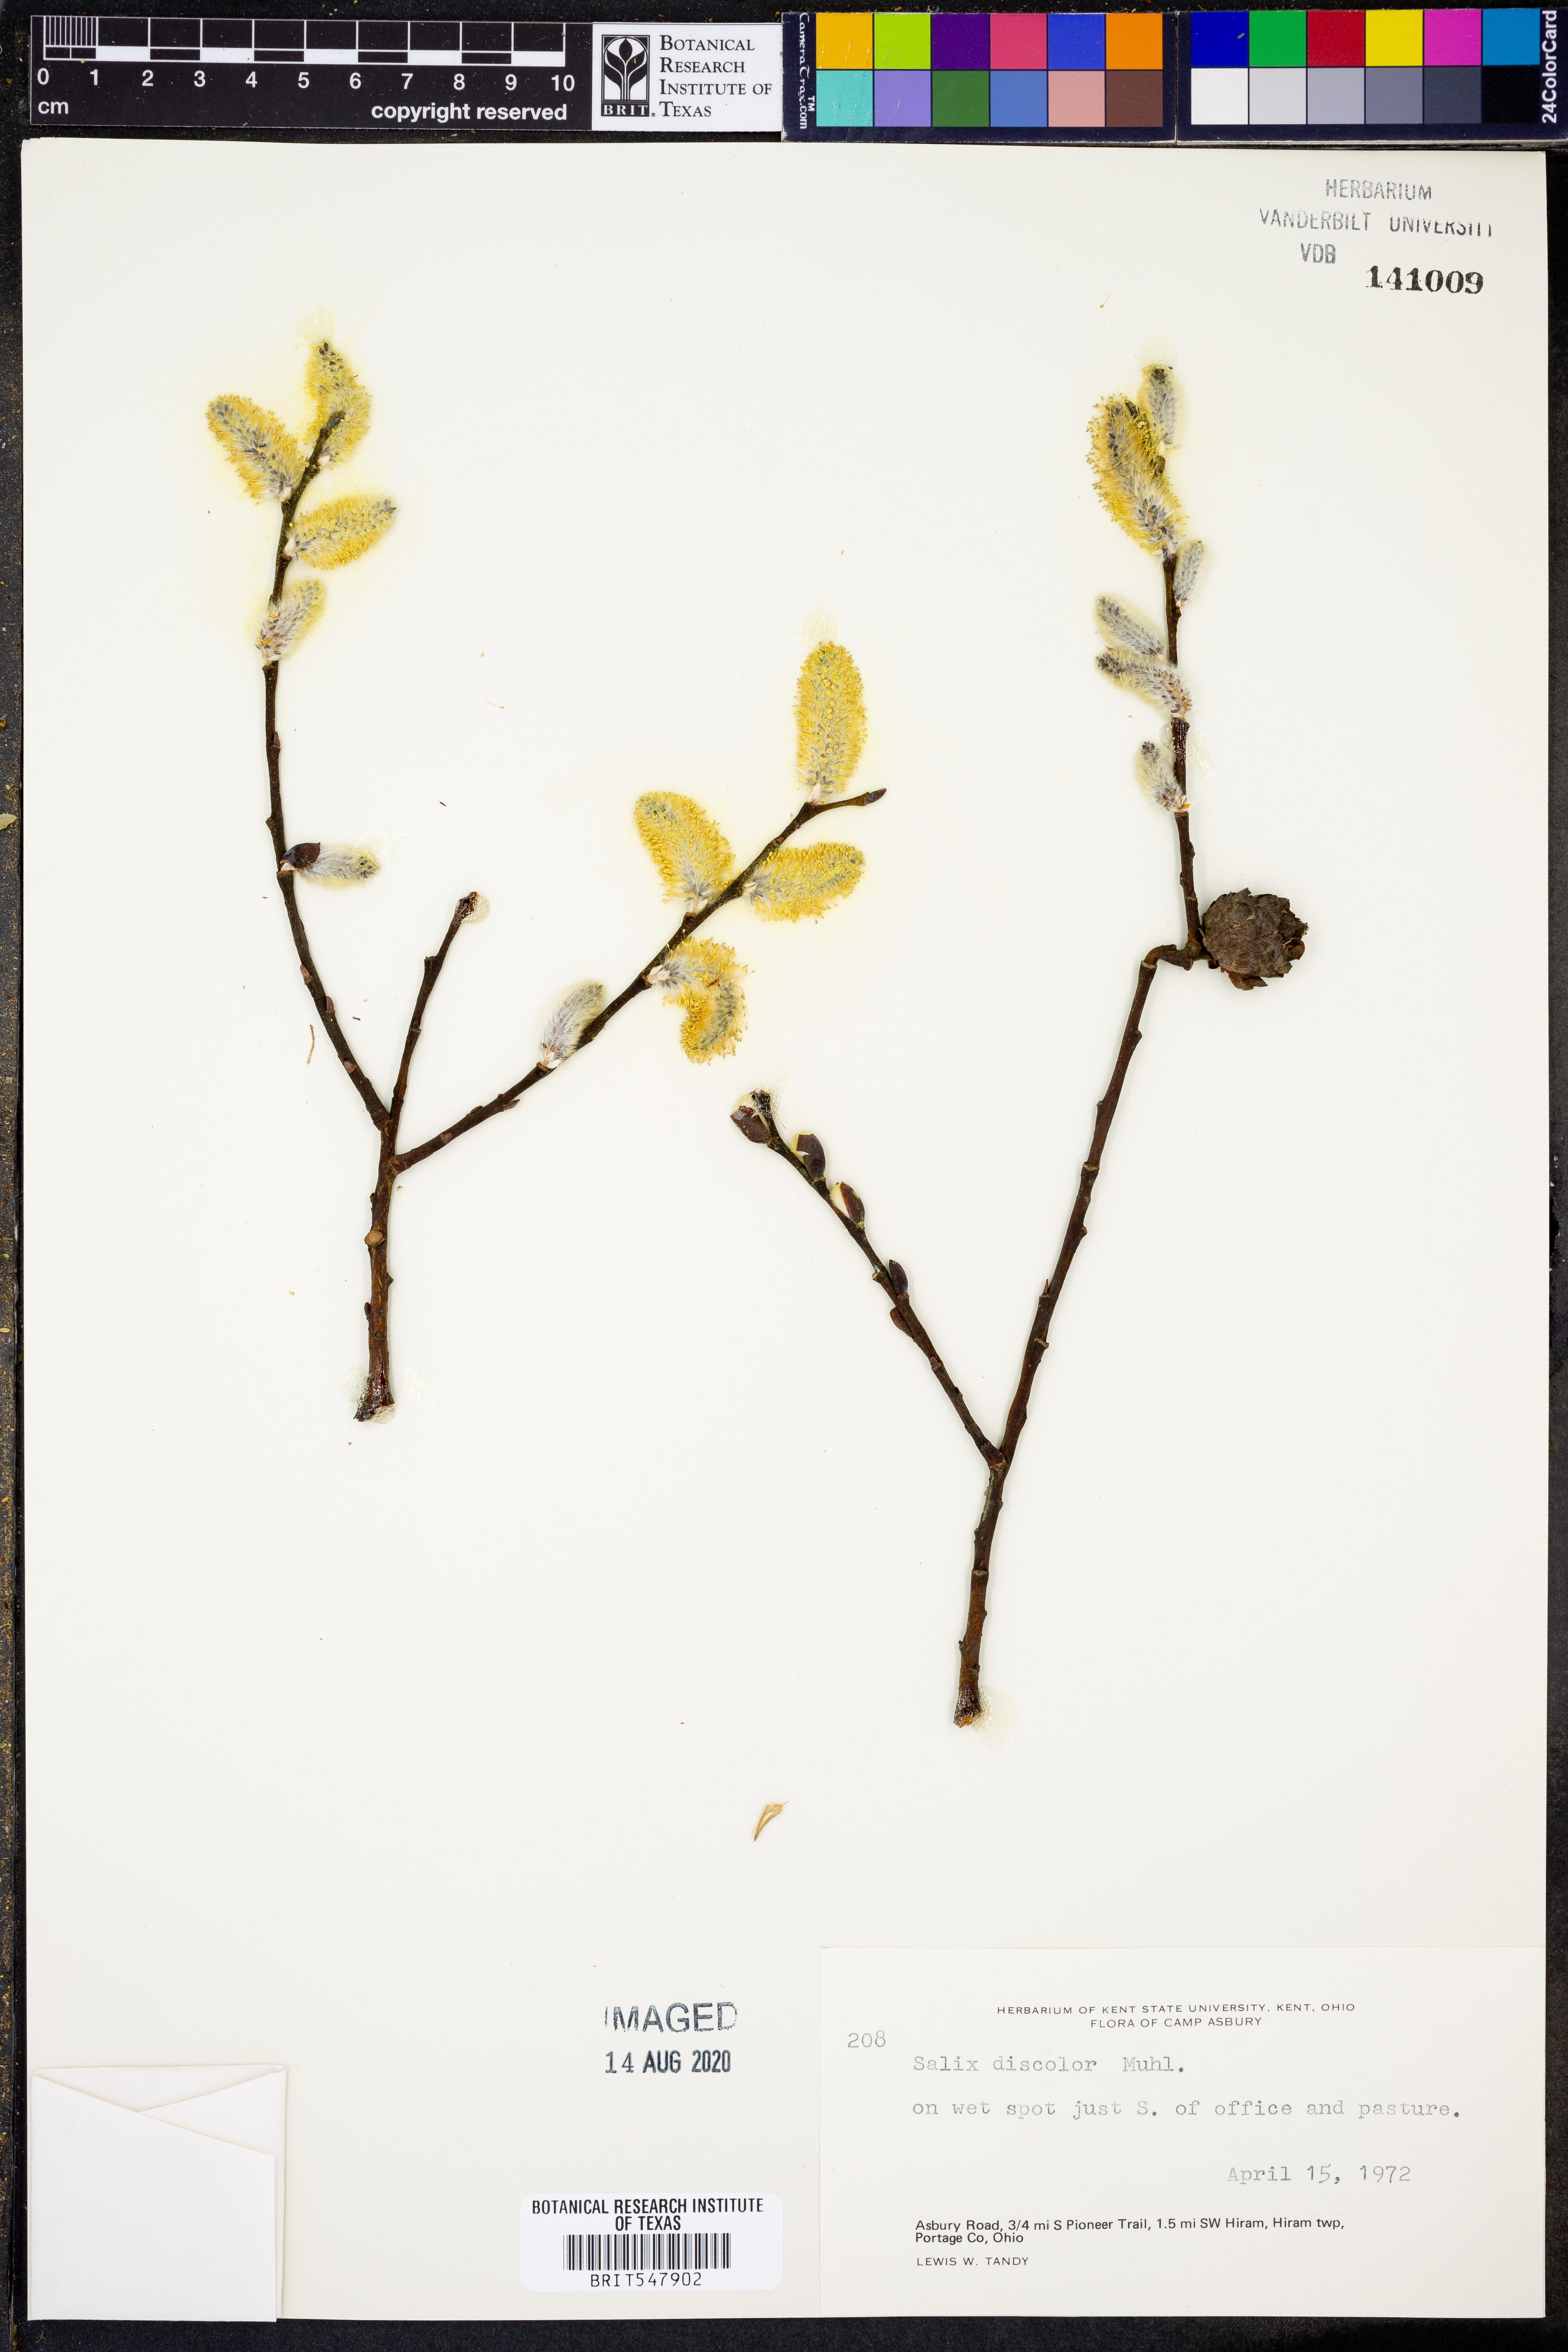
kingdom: Plantae
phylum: Tracheophyta
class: Magnoliopsida
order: Malpighiales
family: Salicaceae
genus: Salix
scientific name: Salix discolor
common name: Glaucous willow
